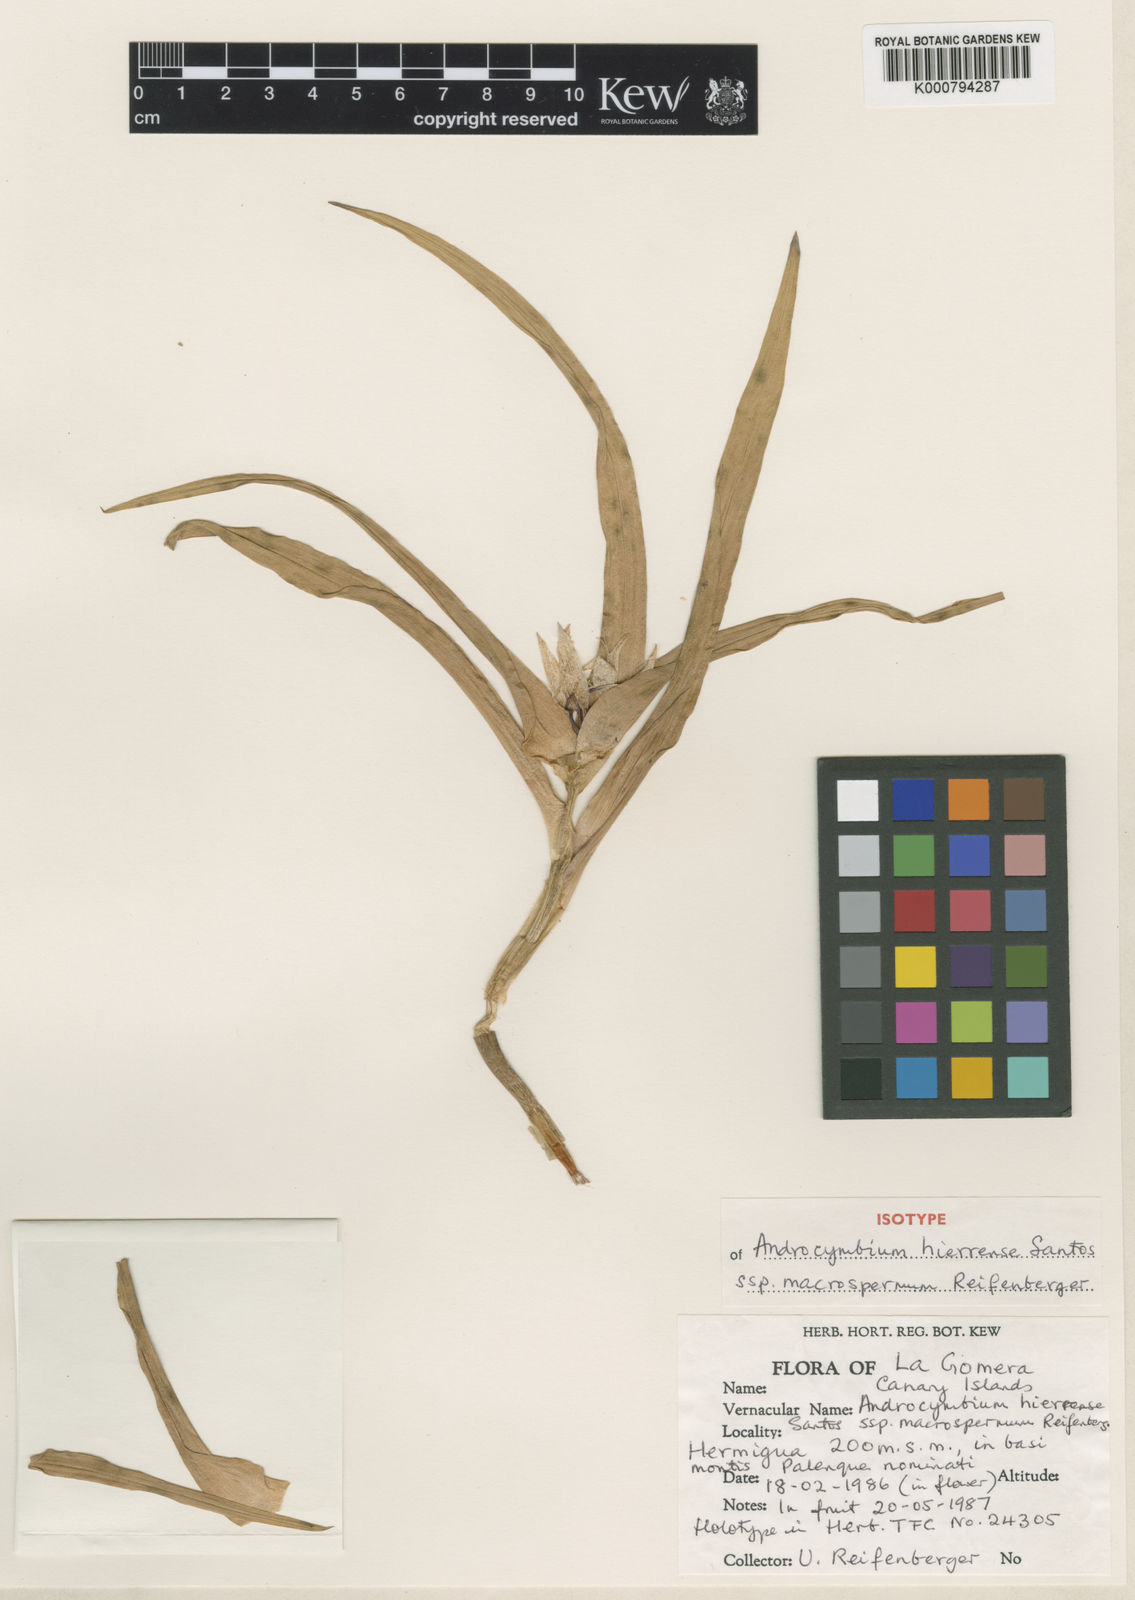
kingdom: Plantae
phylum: Tracheophyta
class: Liliopsida
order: Liliales
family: Colchicaceae
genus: Colchicum
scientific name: Colchicum hierrense
